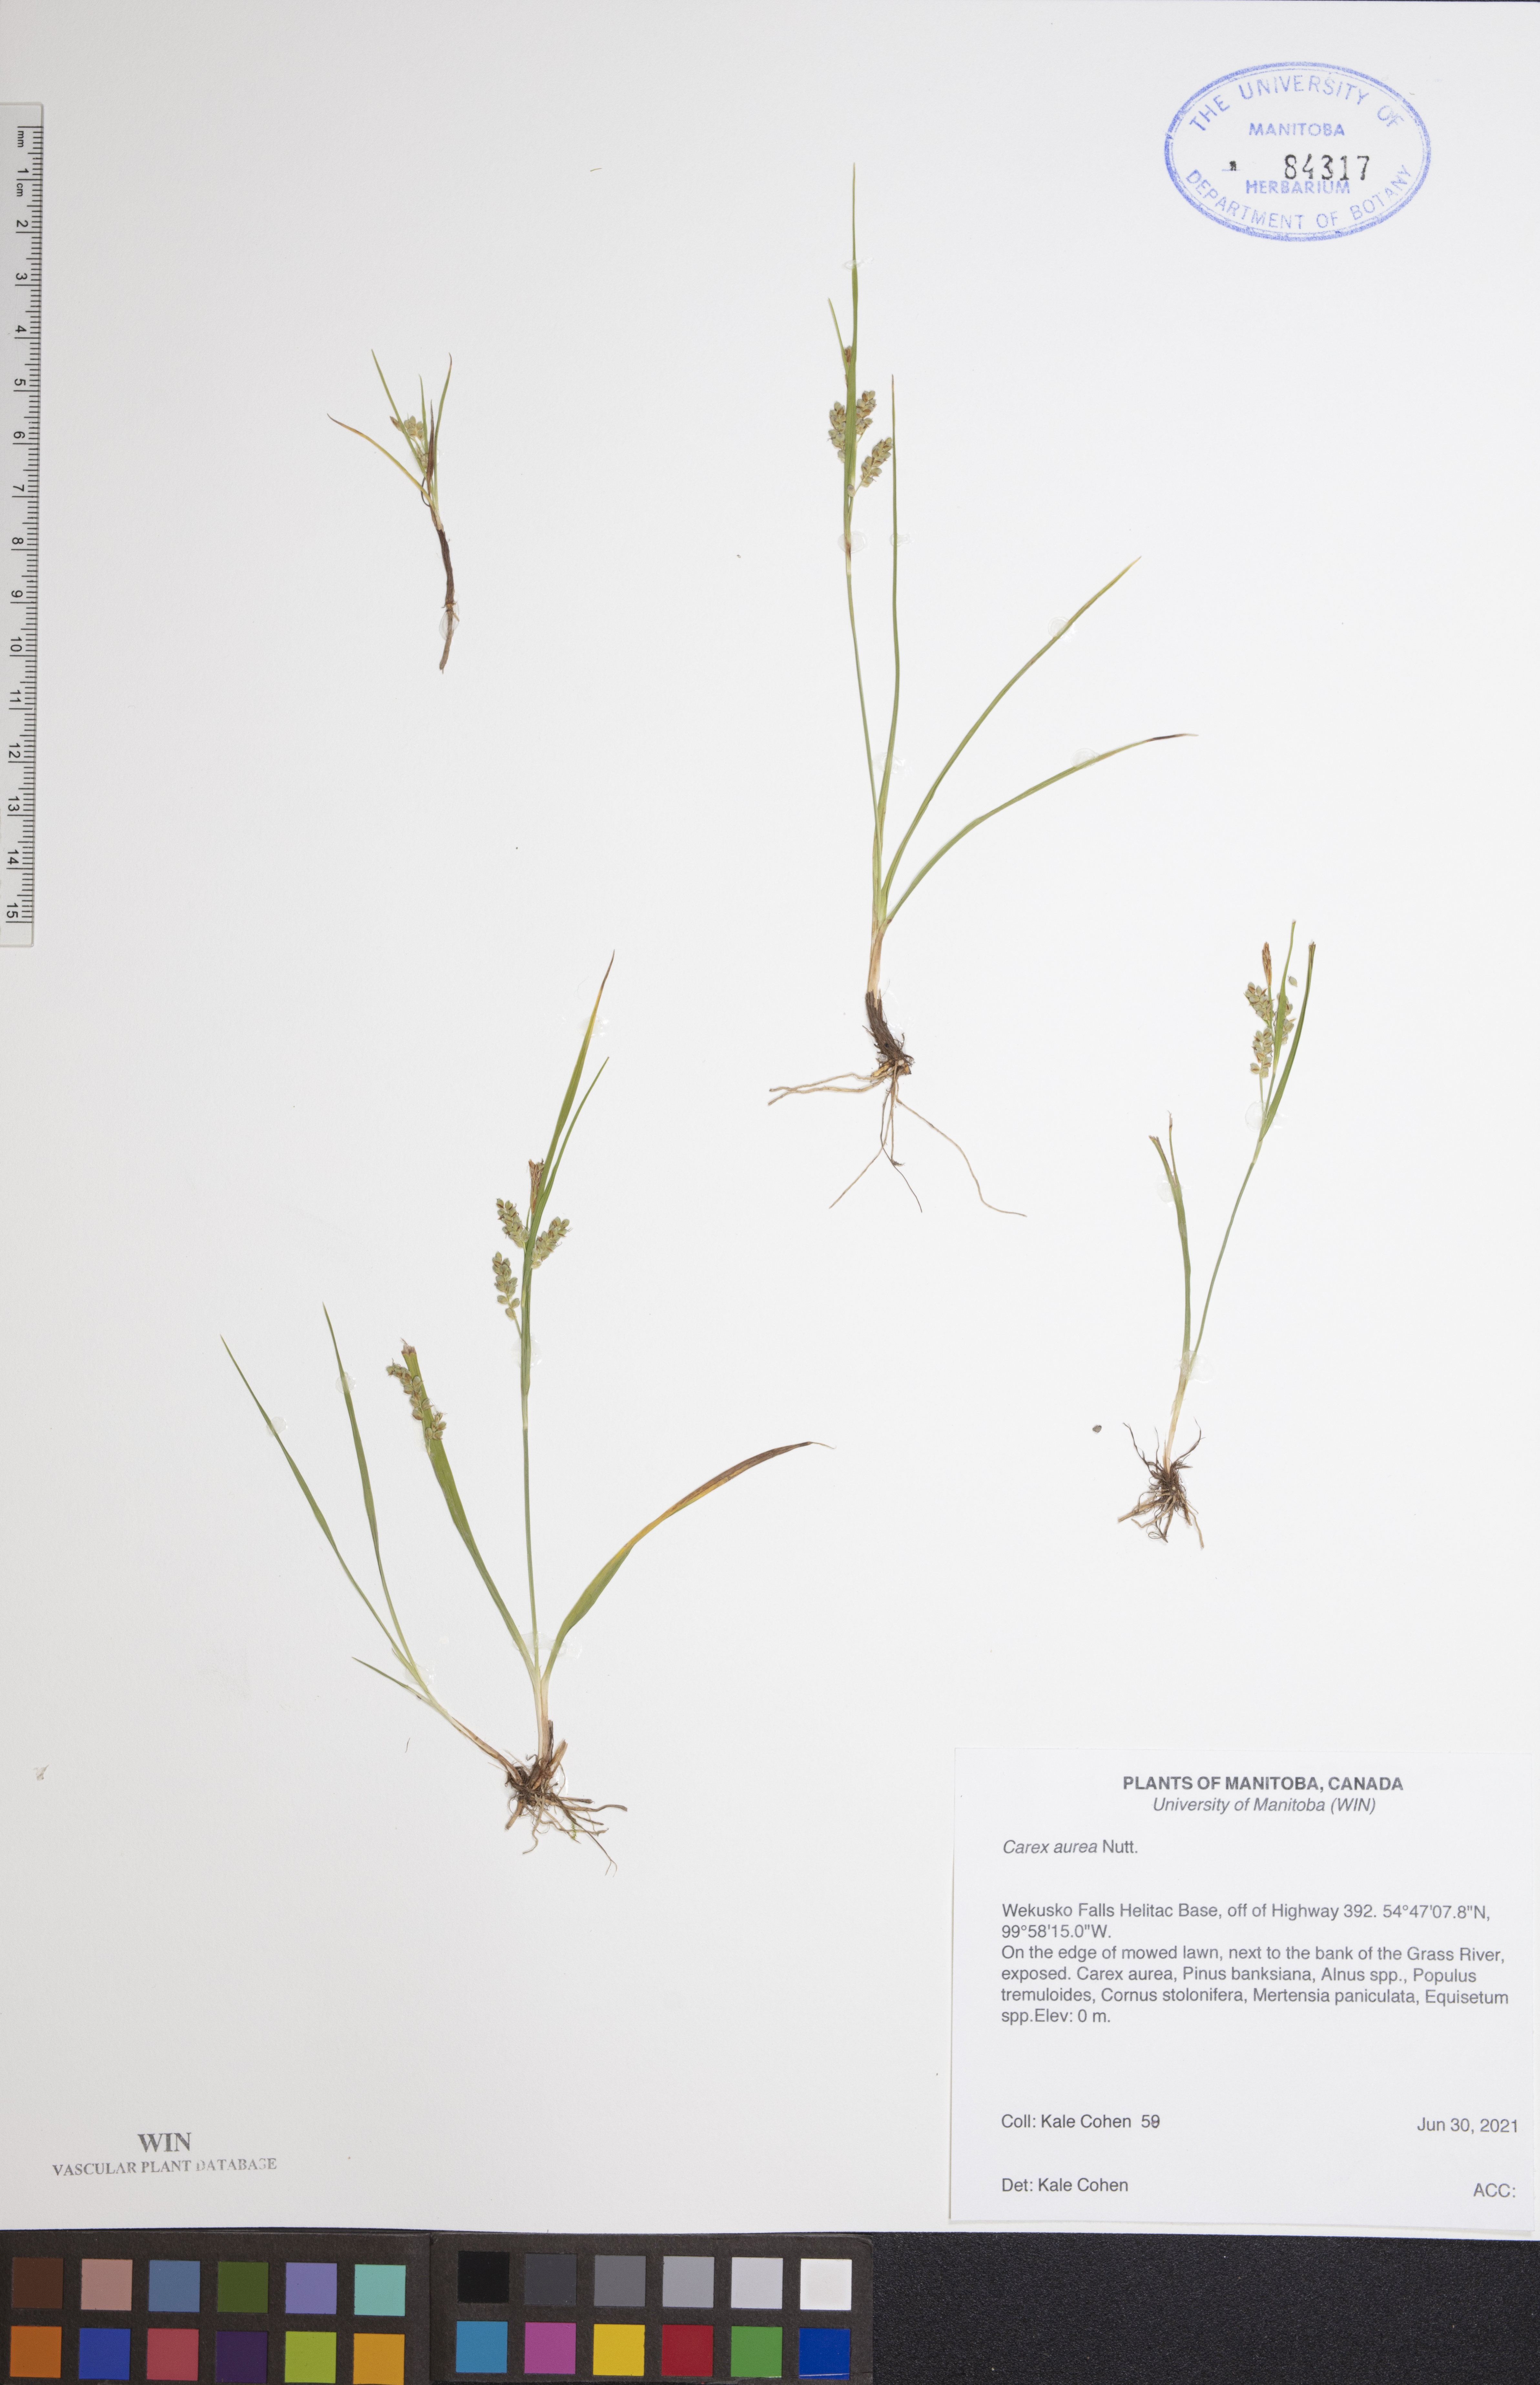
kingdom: Plantae
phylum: Tracheophyta
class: Liliopsida
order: Poales
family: Cyperaceae
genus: Carex
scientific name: Carex aurea
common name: Golden sedge
